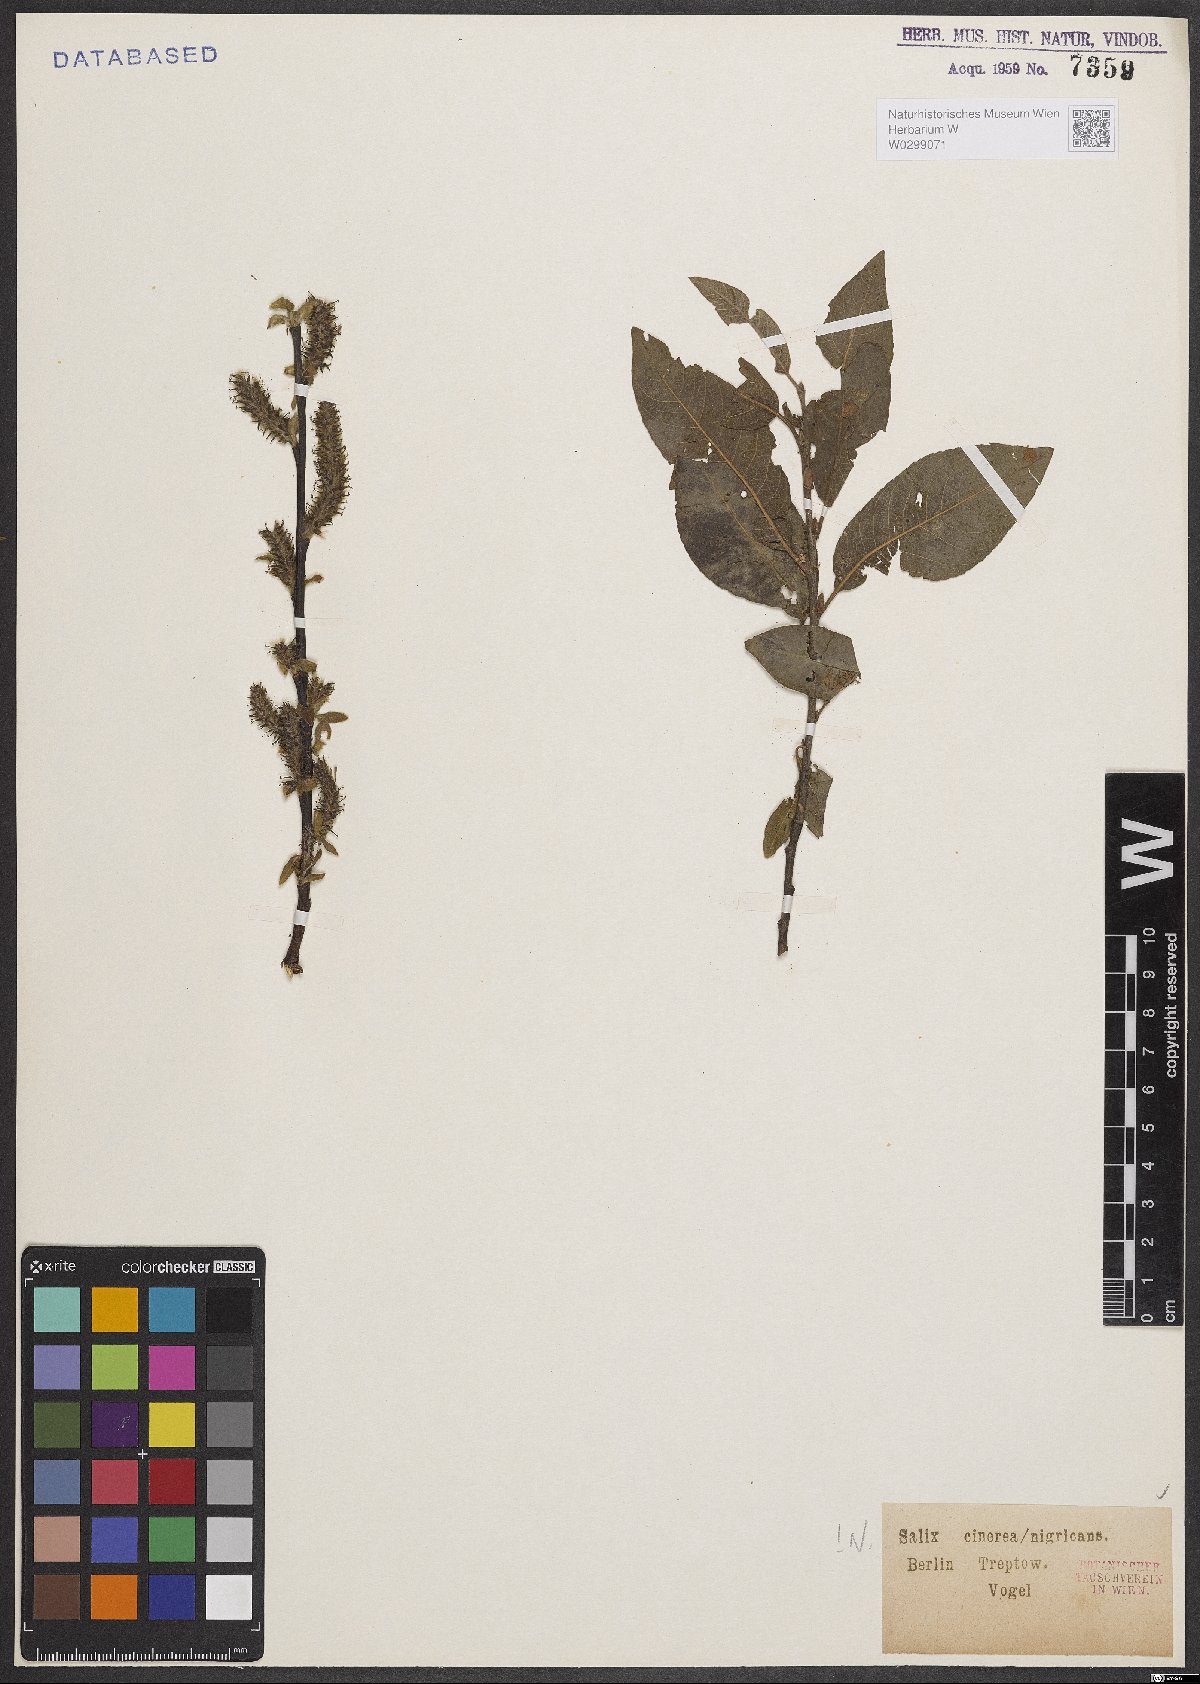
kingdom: Plantae
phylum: Tracheophyta
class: Magnoliopsida
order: Malpighiales
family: Salicaceae
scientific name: Salicaceae
